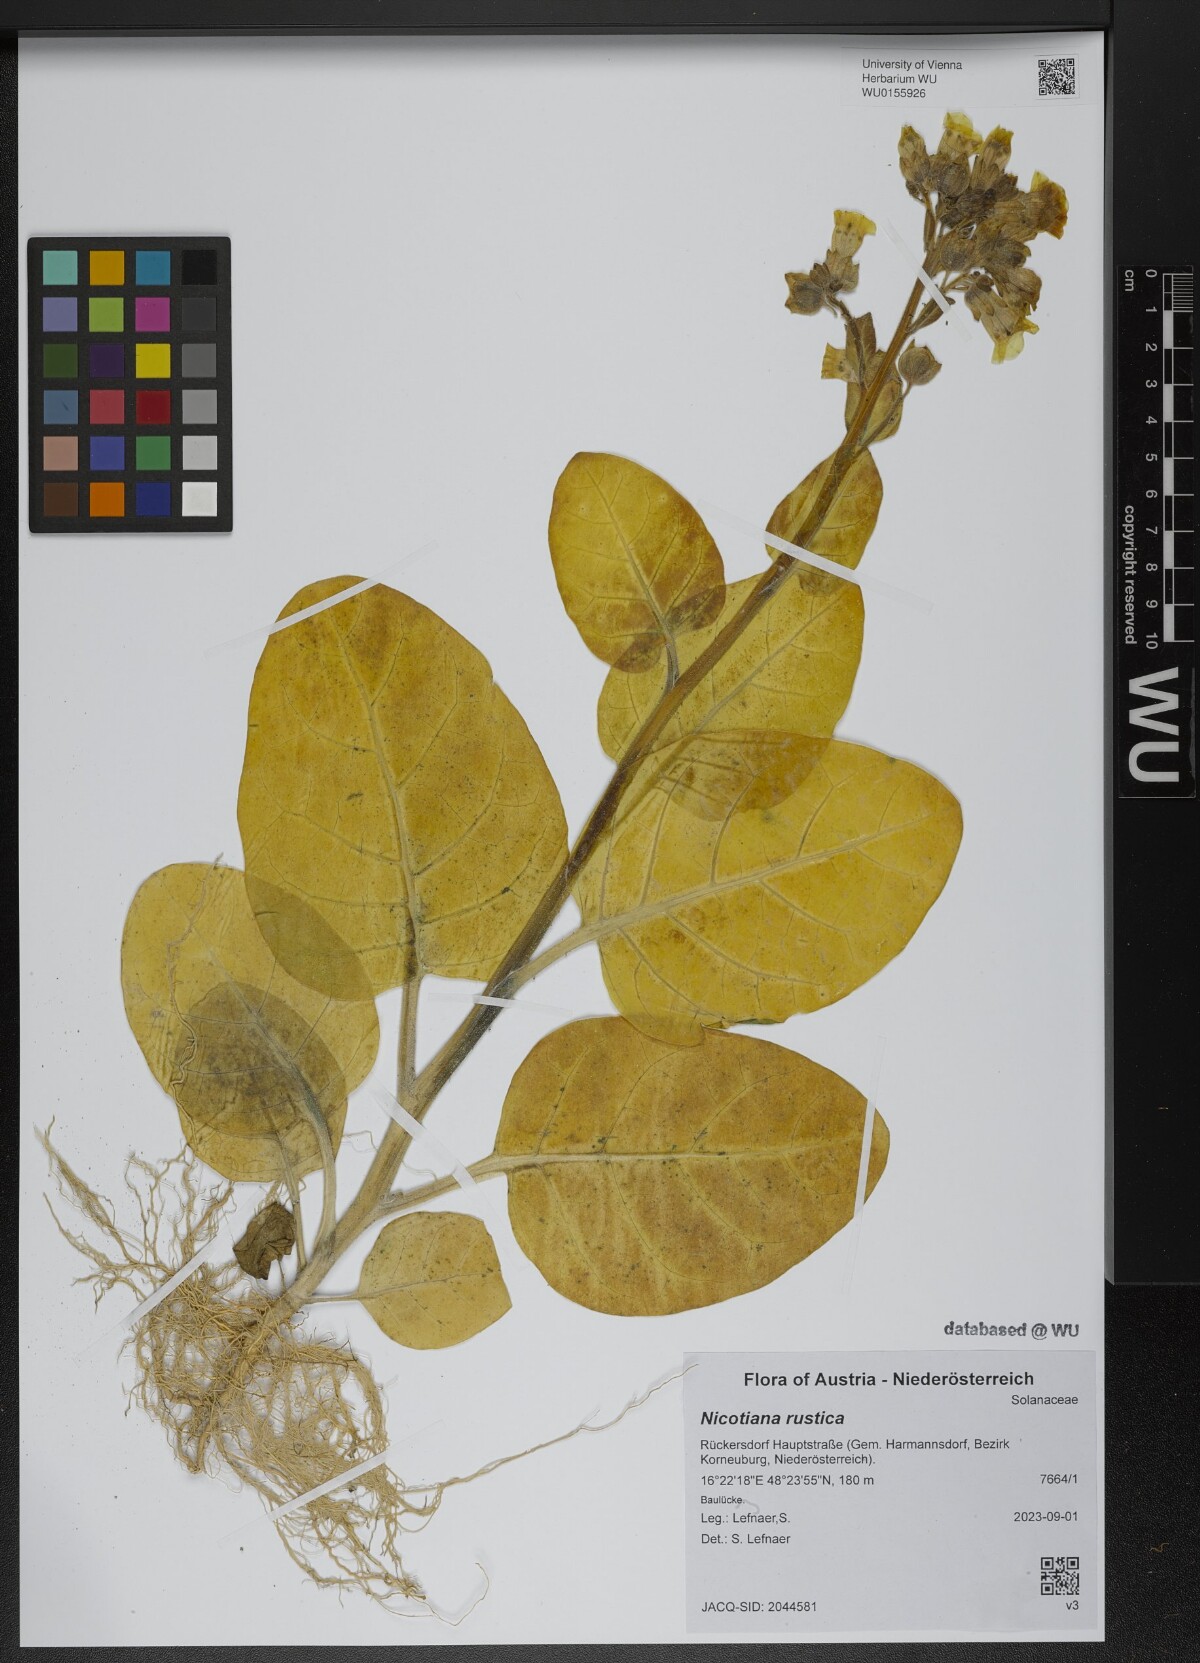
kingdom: Plantae
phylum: Tracheophyta
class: Magnoliopsida
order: Solanales
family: Solanaceae
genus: Nicotiana
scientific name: Nicotiana rustica
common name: Wild tobacco
